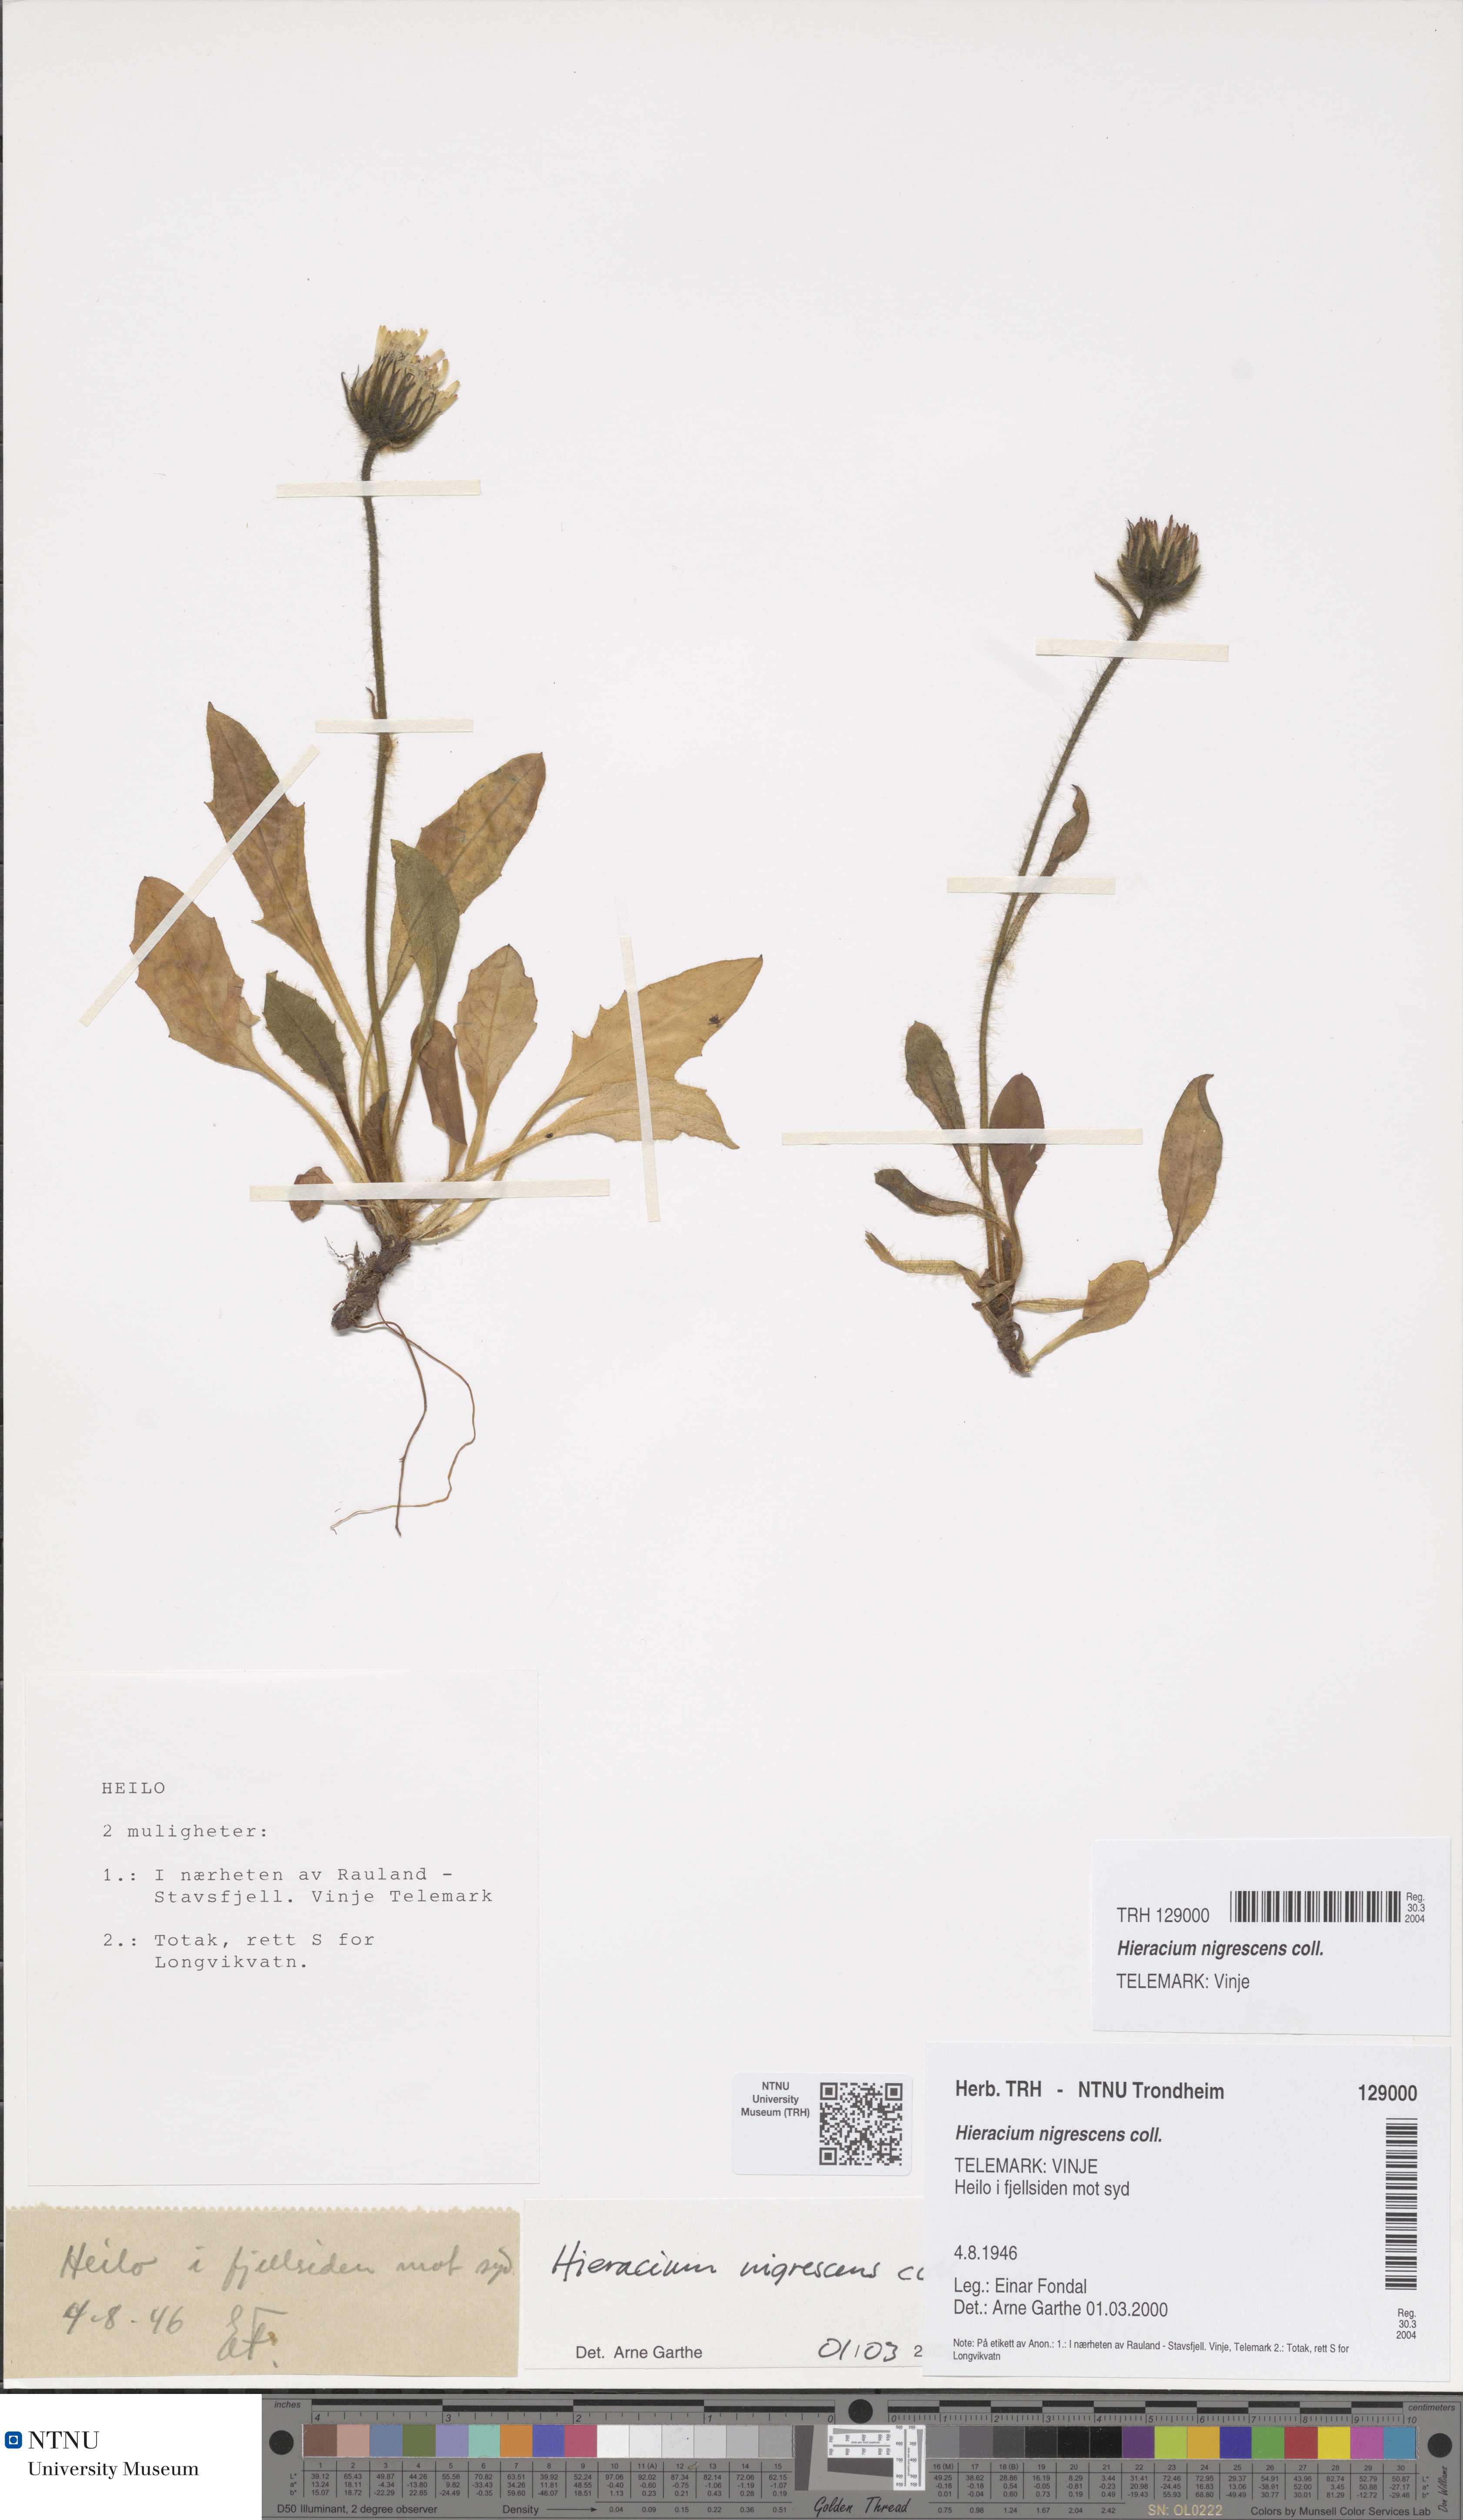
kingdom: Plantae
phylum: Tracheophyta
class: Magnoliopsida
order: Asterales
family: Asteraceae
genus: Hieracium
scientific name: Hieracium nigrescens
